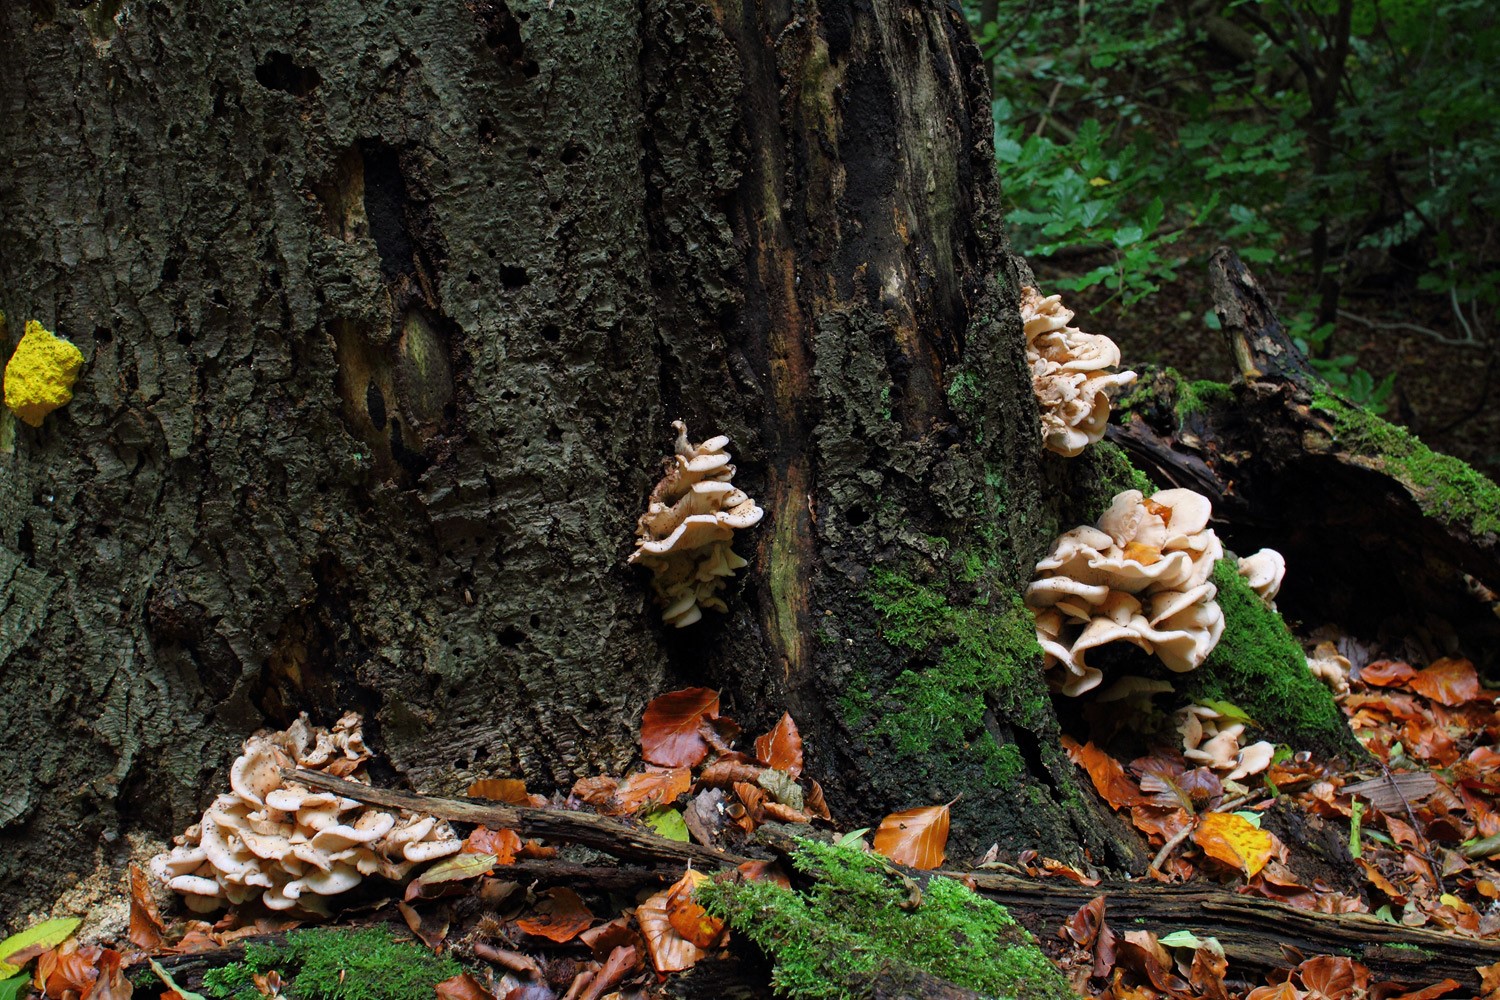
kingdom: Fungi
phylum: Basidiomycota
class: Agaricomycetes
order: Russulales
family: Auriscalpiaceae
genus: Lentinellus
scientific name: Lentinellus ursinus
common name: børstehåret savbladhat
